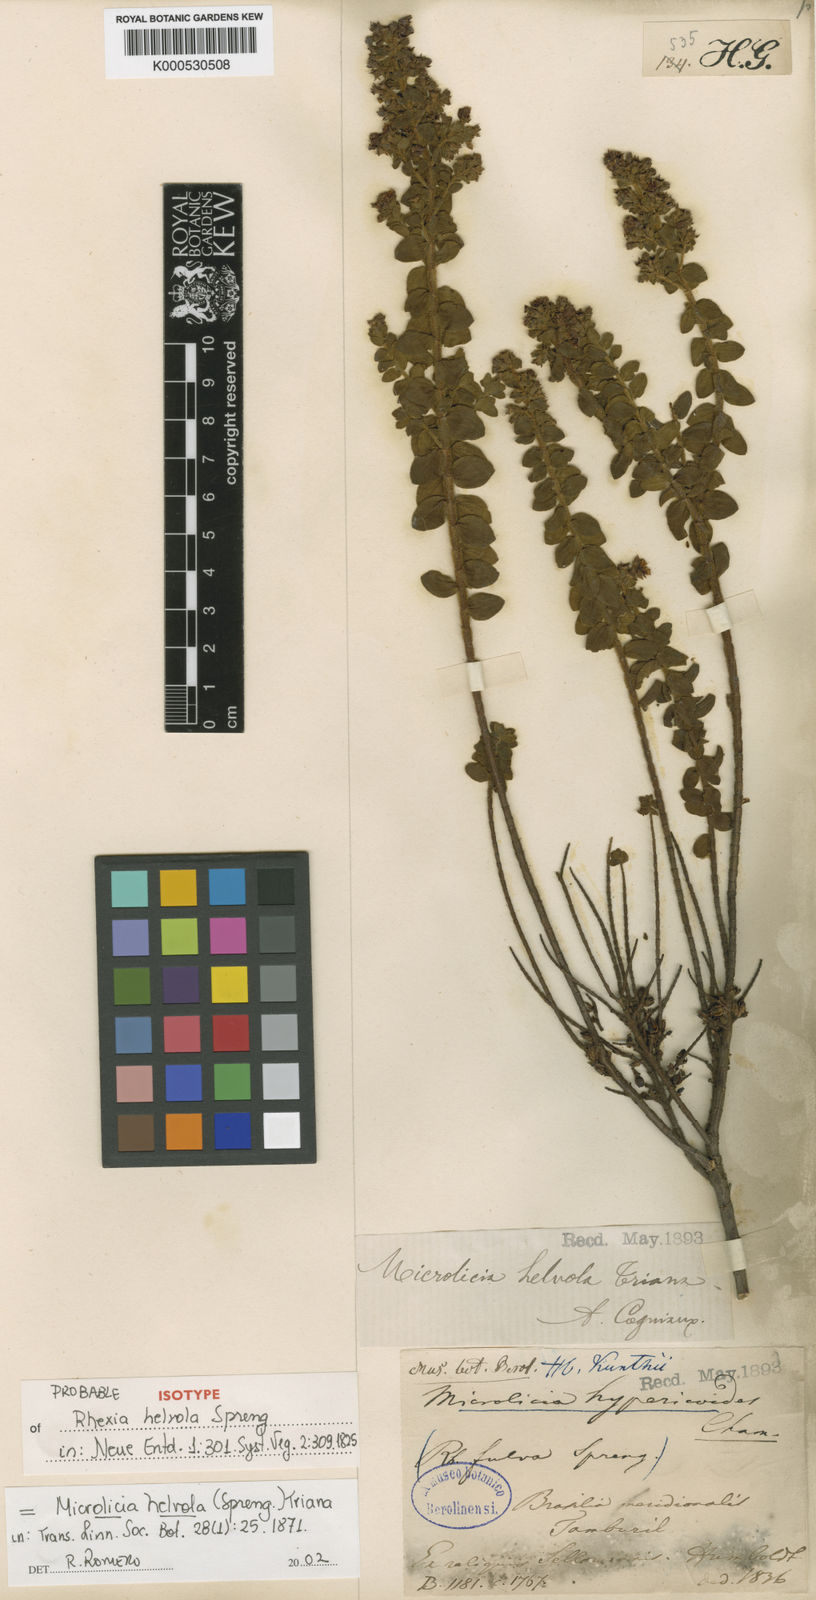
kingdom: Plantae
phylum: Tracheophyta
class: Magnoliopsida
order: Myrtales
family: Melastomataceae
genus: Microlicia
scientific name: Microlicia helvola
